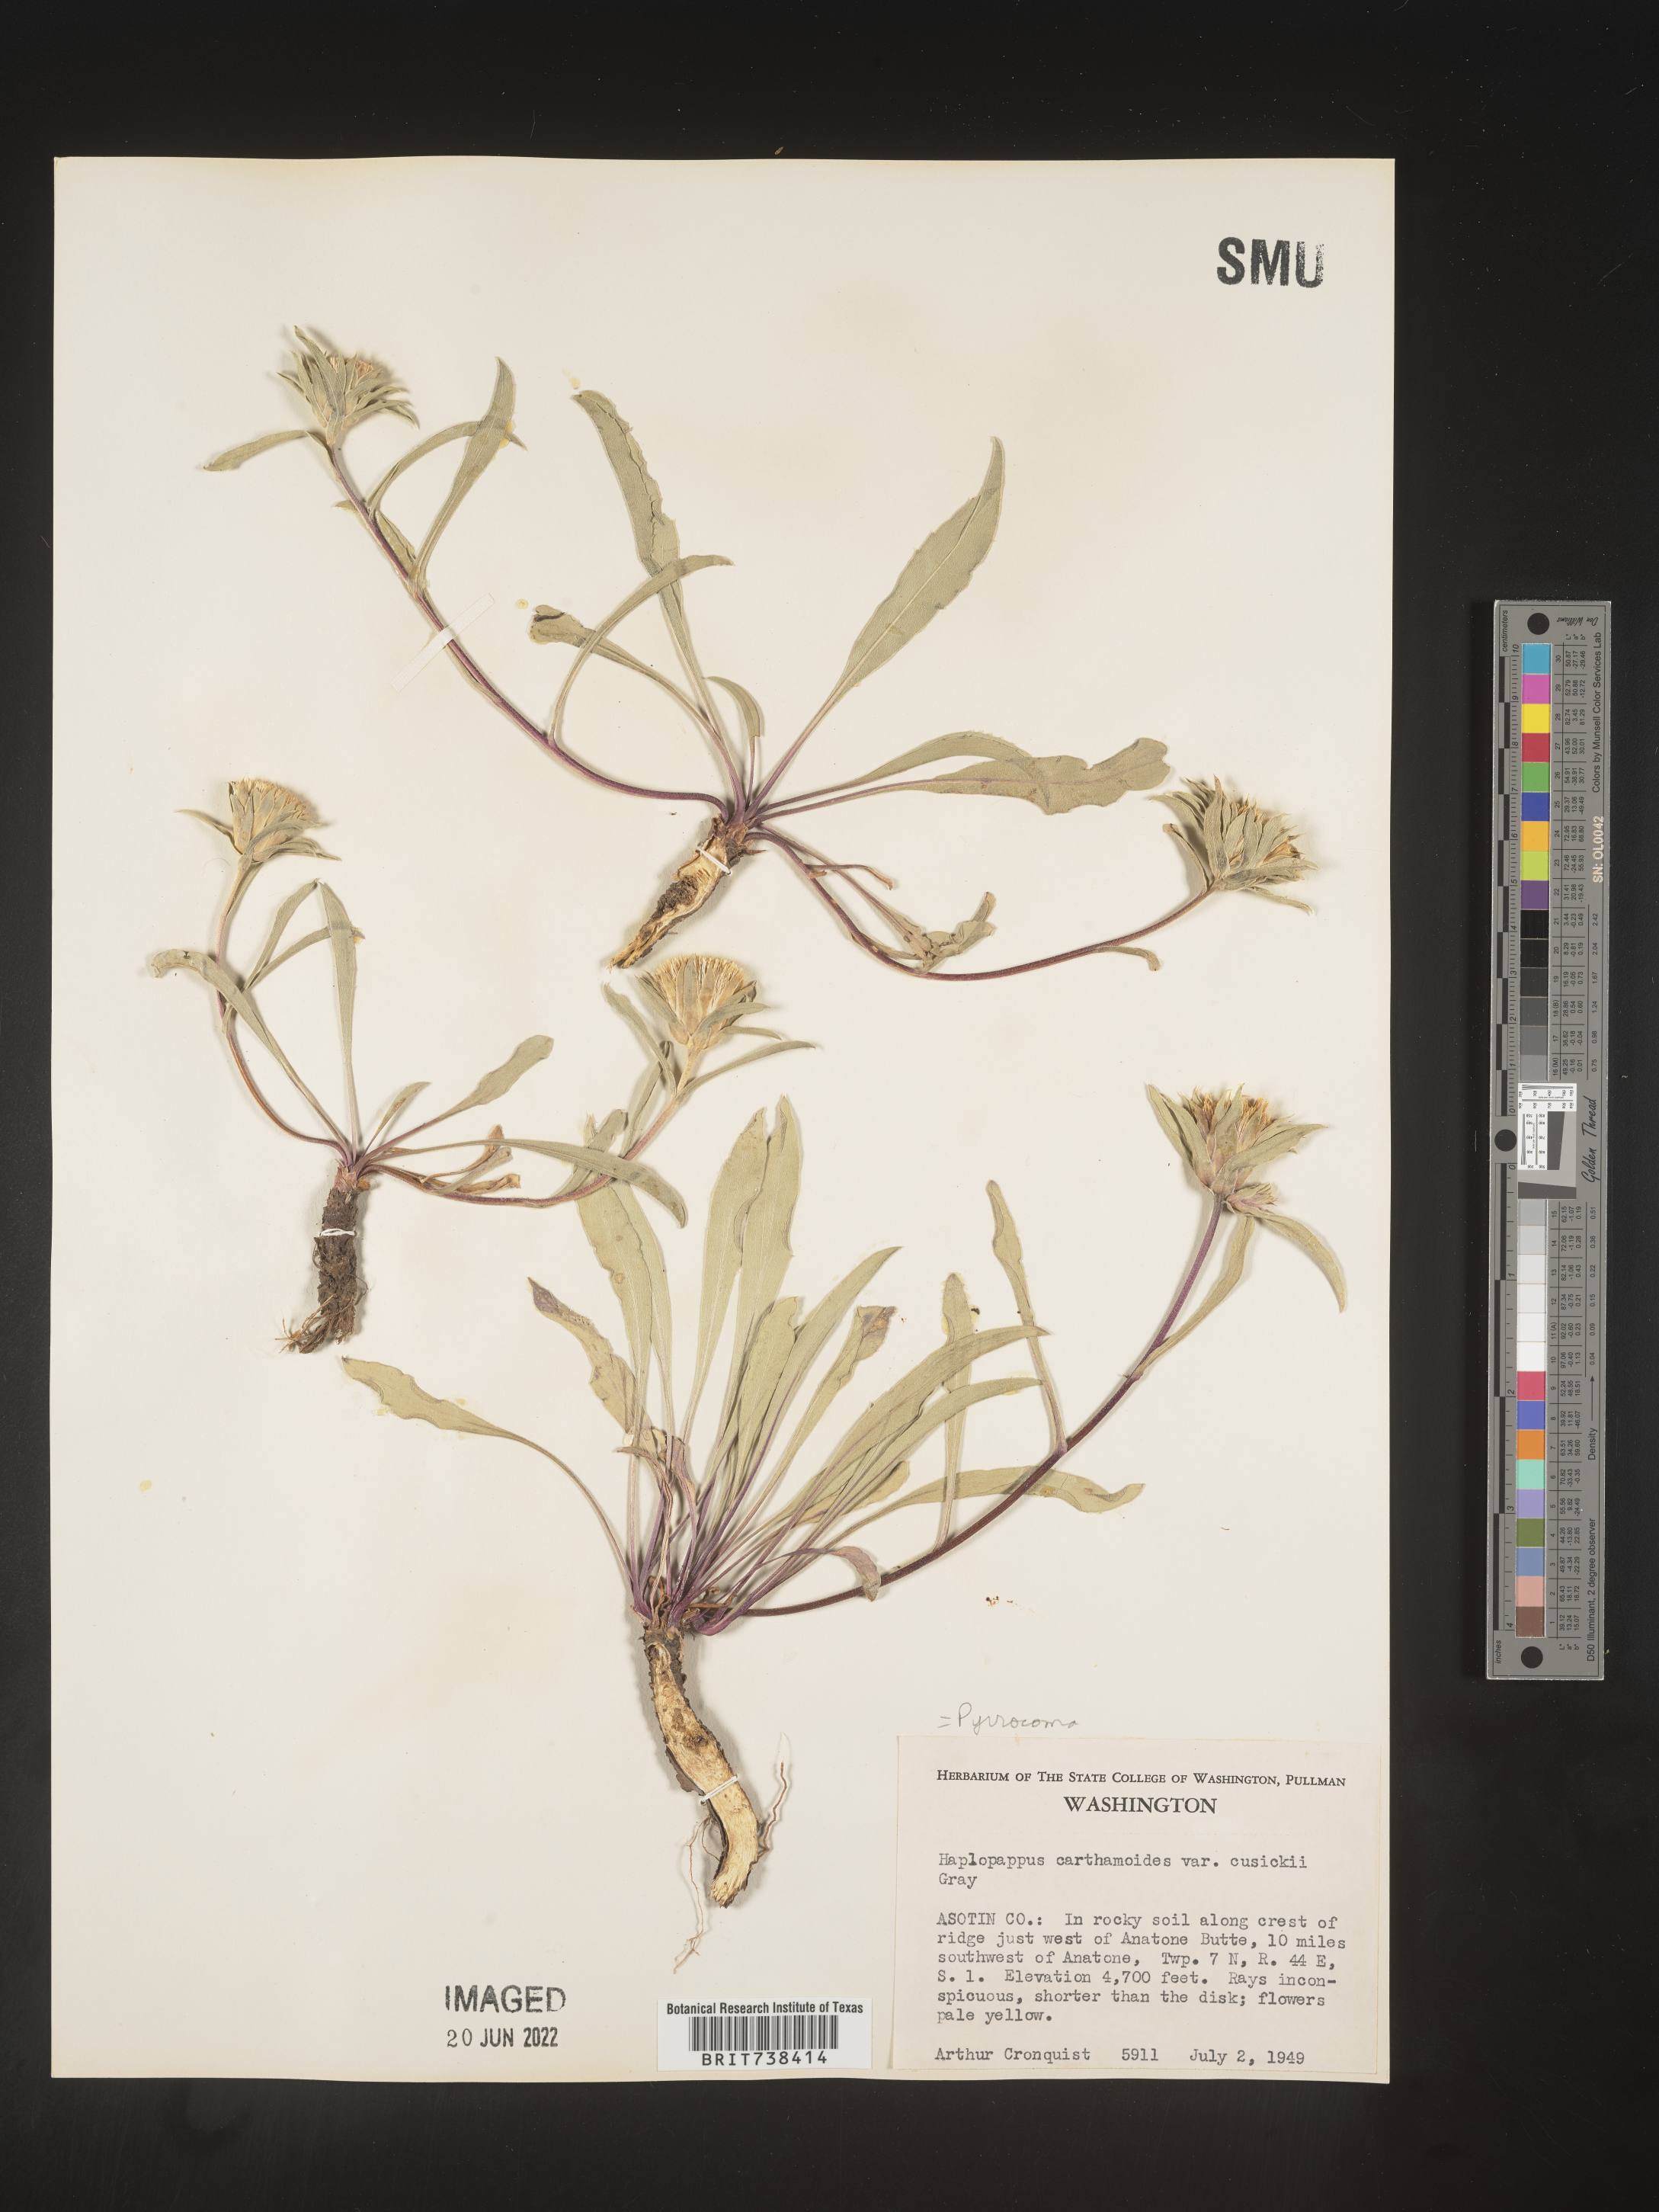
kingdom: Plantae
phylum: Tracheophyta
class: Magnoliopsida
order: Asterales
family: Asteraceae
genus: Pyrrocoma
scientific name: Pyrrocoma carthamoides
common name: Large-flower goldenweed
